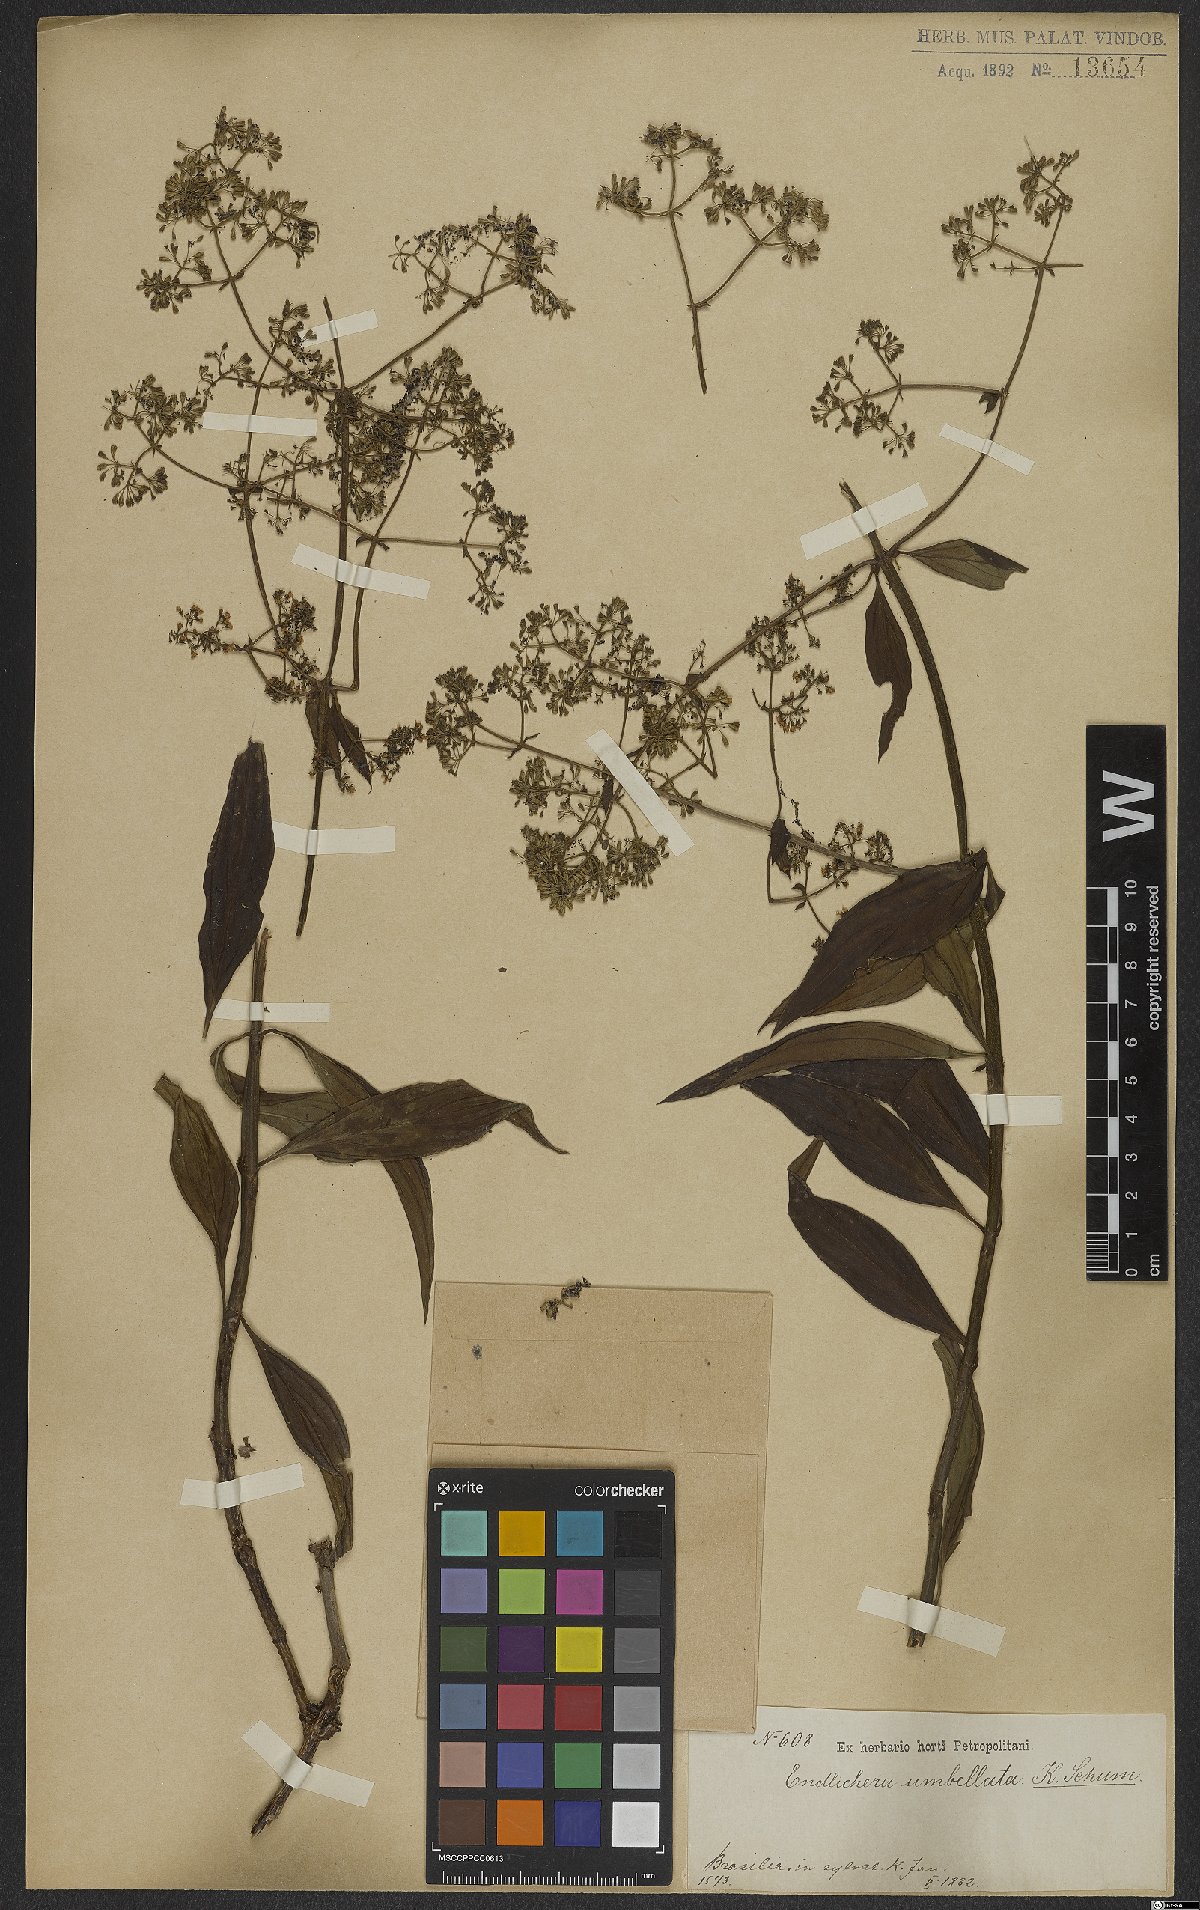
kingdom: Plantae
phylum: Tracheophyta
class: Magnoliopsida
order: Gentianales
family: Rubiaceae
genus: Emmeorhiza
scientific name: Emmeorhiza umbellata
